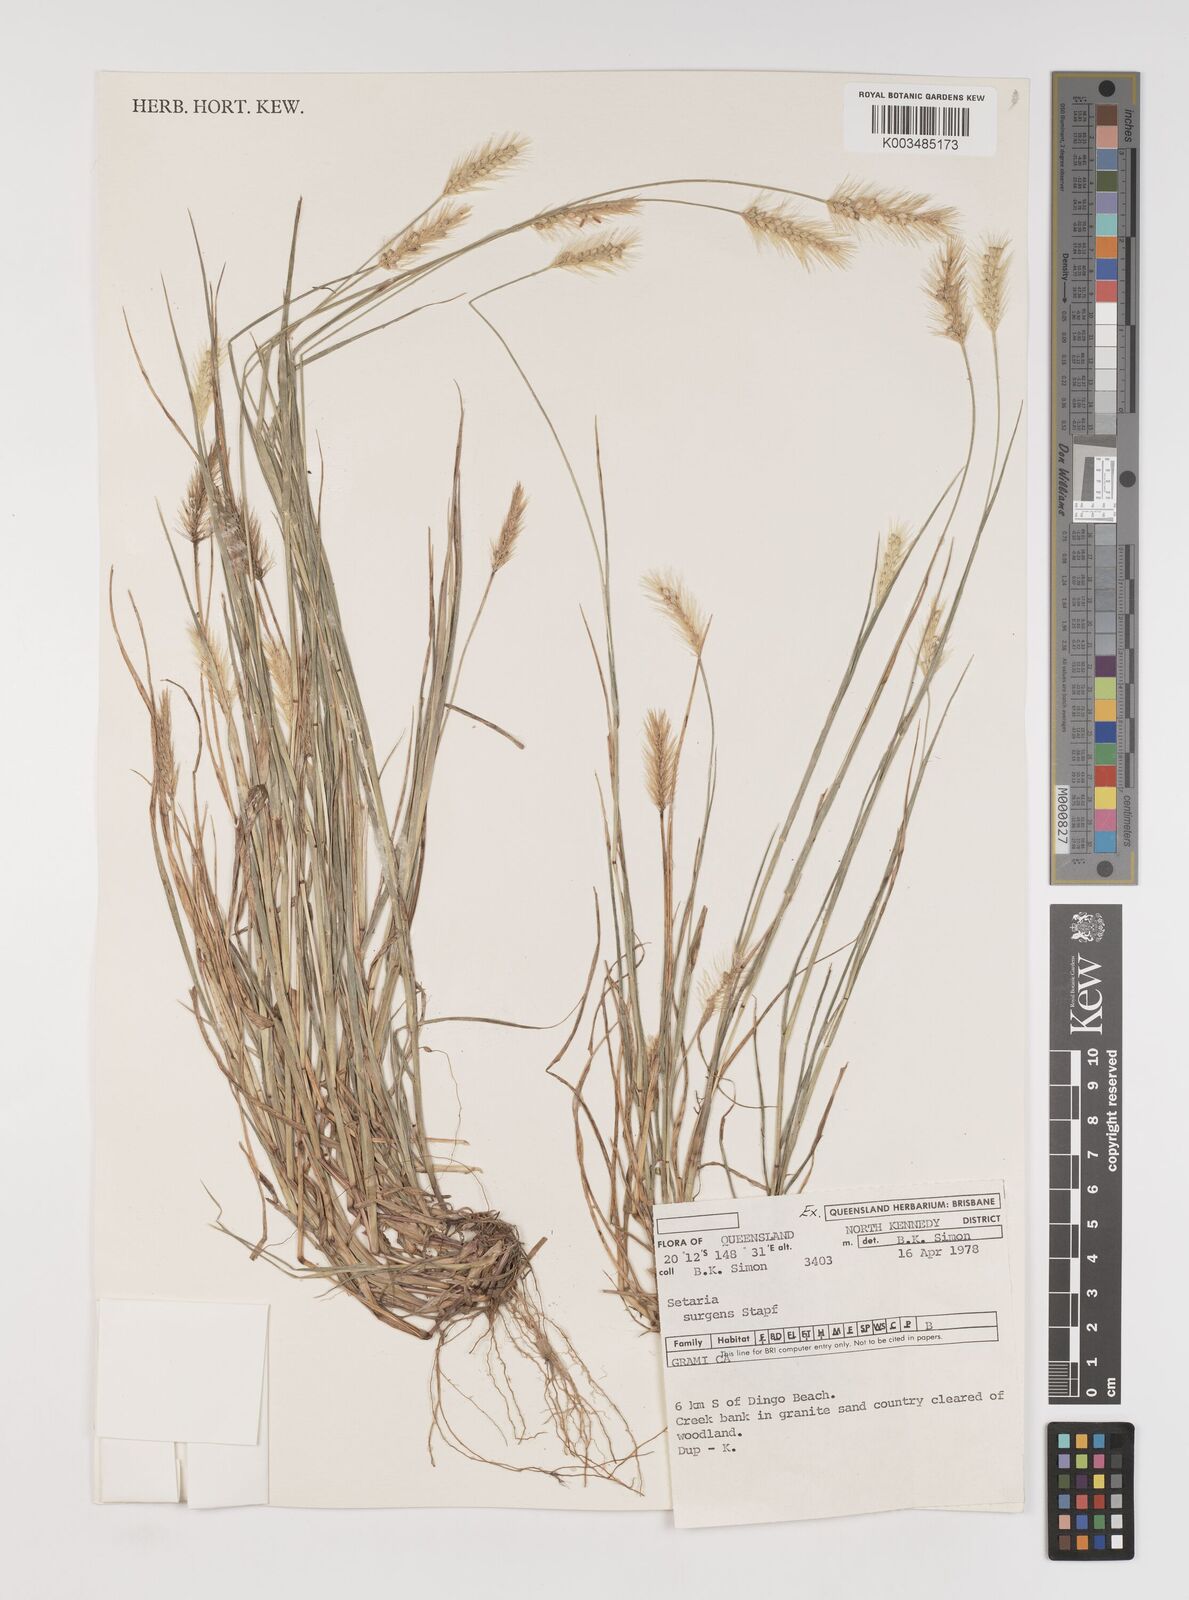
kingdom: Plantae
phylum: Tracheophyta
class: Liliopsida
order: Poales
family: Poaceae
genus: Setaria
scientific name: Setaria apiculata
